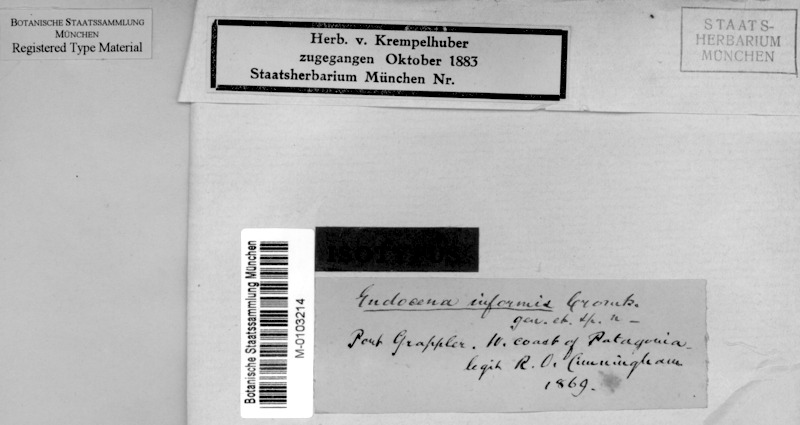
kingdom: Fungi
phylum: Ascomycota
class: Lecanoromycetes
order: Pertusariales
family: Icmadophilaceae
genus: Endocena
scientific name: Endocena informis
